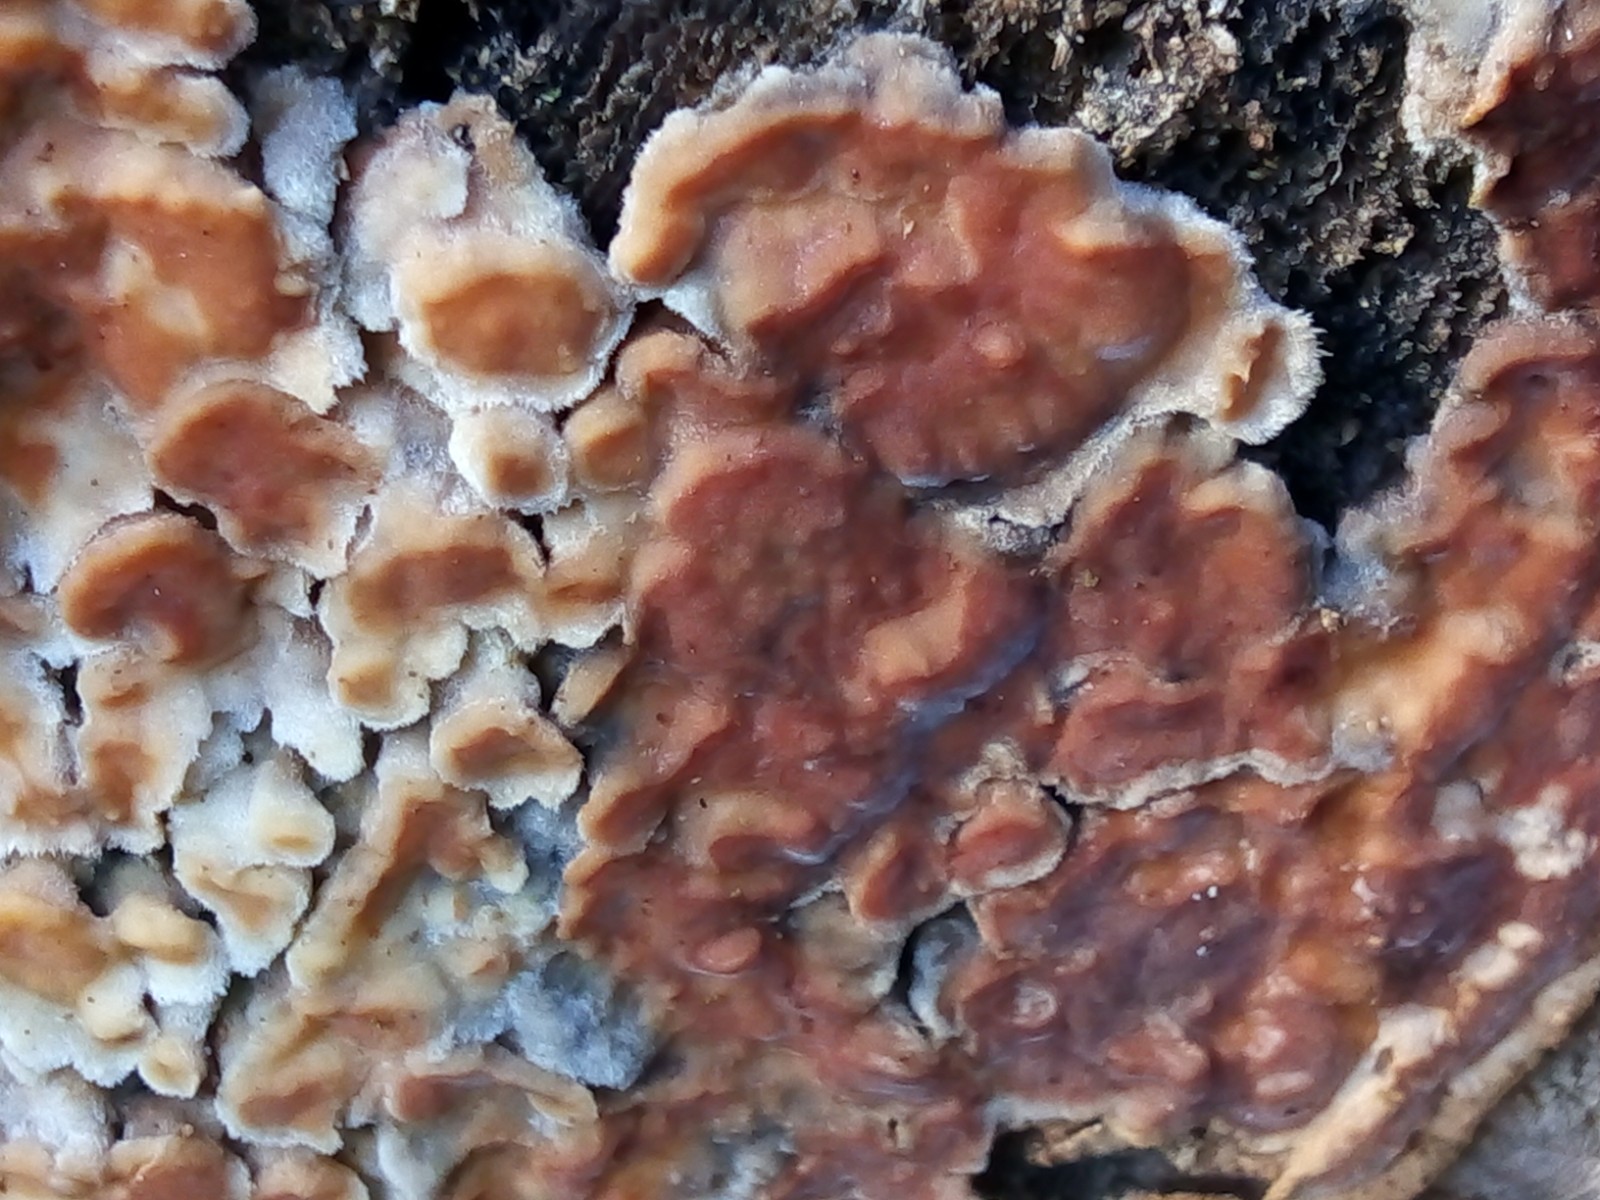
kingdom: Fungi
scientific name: Fungi
